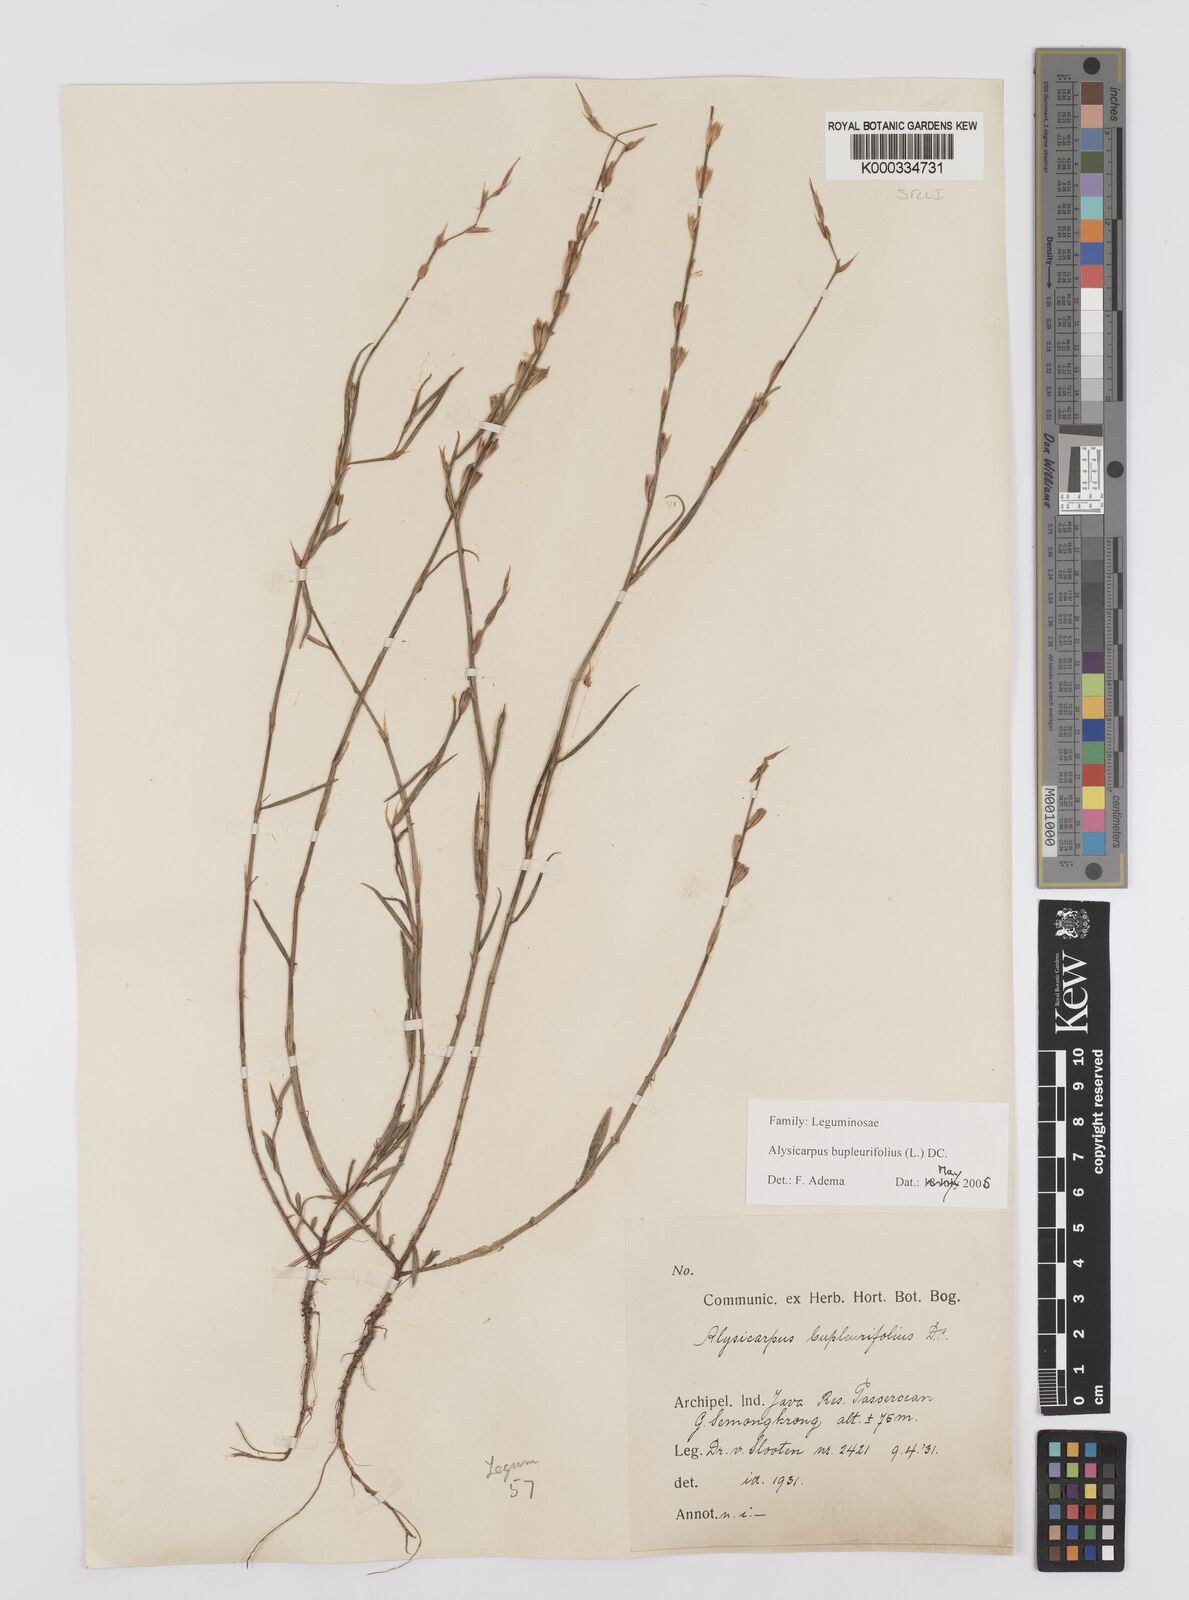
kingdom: Plantae
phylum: Tracheophyta
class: Magnoliopsida
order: Fabales
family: Fabaceae
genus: Alysicarpus
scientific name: Alysicarpus bupleurifolius
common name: Sweet alys
